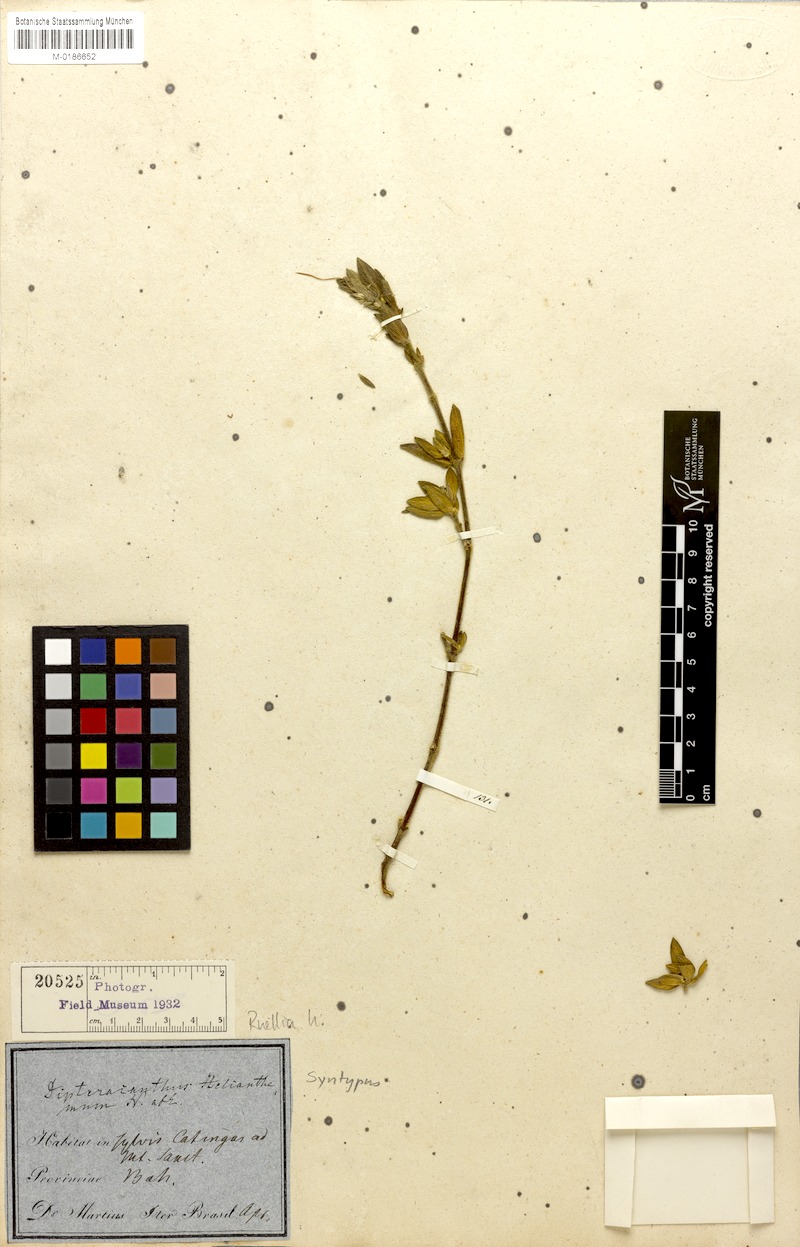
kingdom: Plantae
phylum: Tracheophyta
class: Magnoliopsida
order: Lamiales
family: Acanthaceae
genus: Ruellia
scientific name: Ruellia helianthemum
